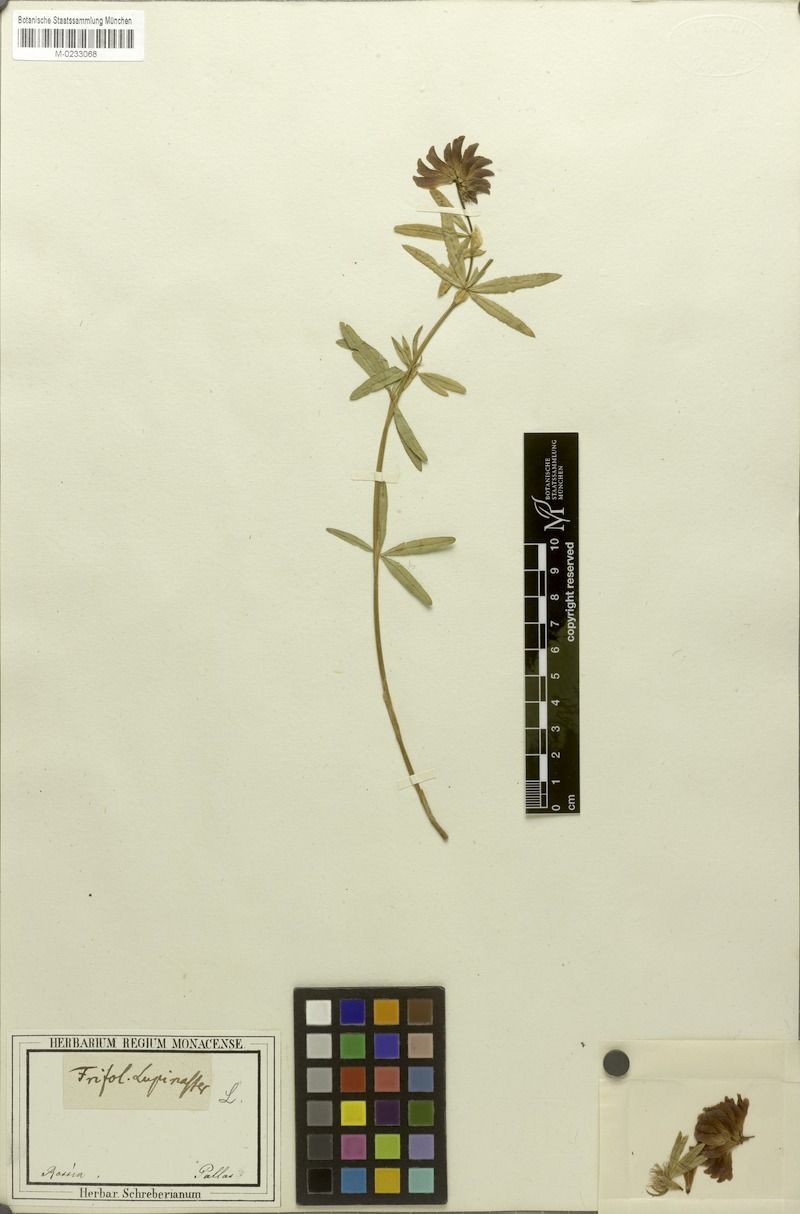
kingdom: Plantae
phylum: Tracheophyta
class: Magnoliopsida
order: Fabales
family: Fabaceae
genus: Trifolium
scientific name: Trifolium lupinaster
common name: Lupine clover
